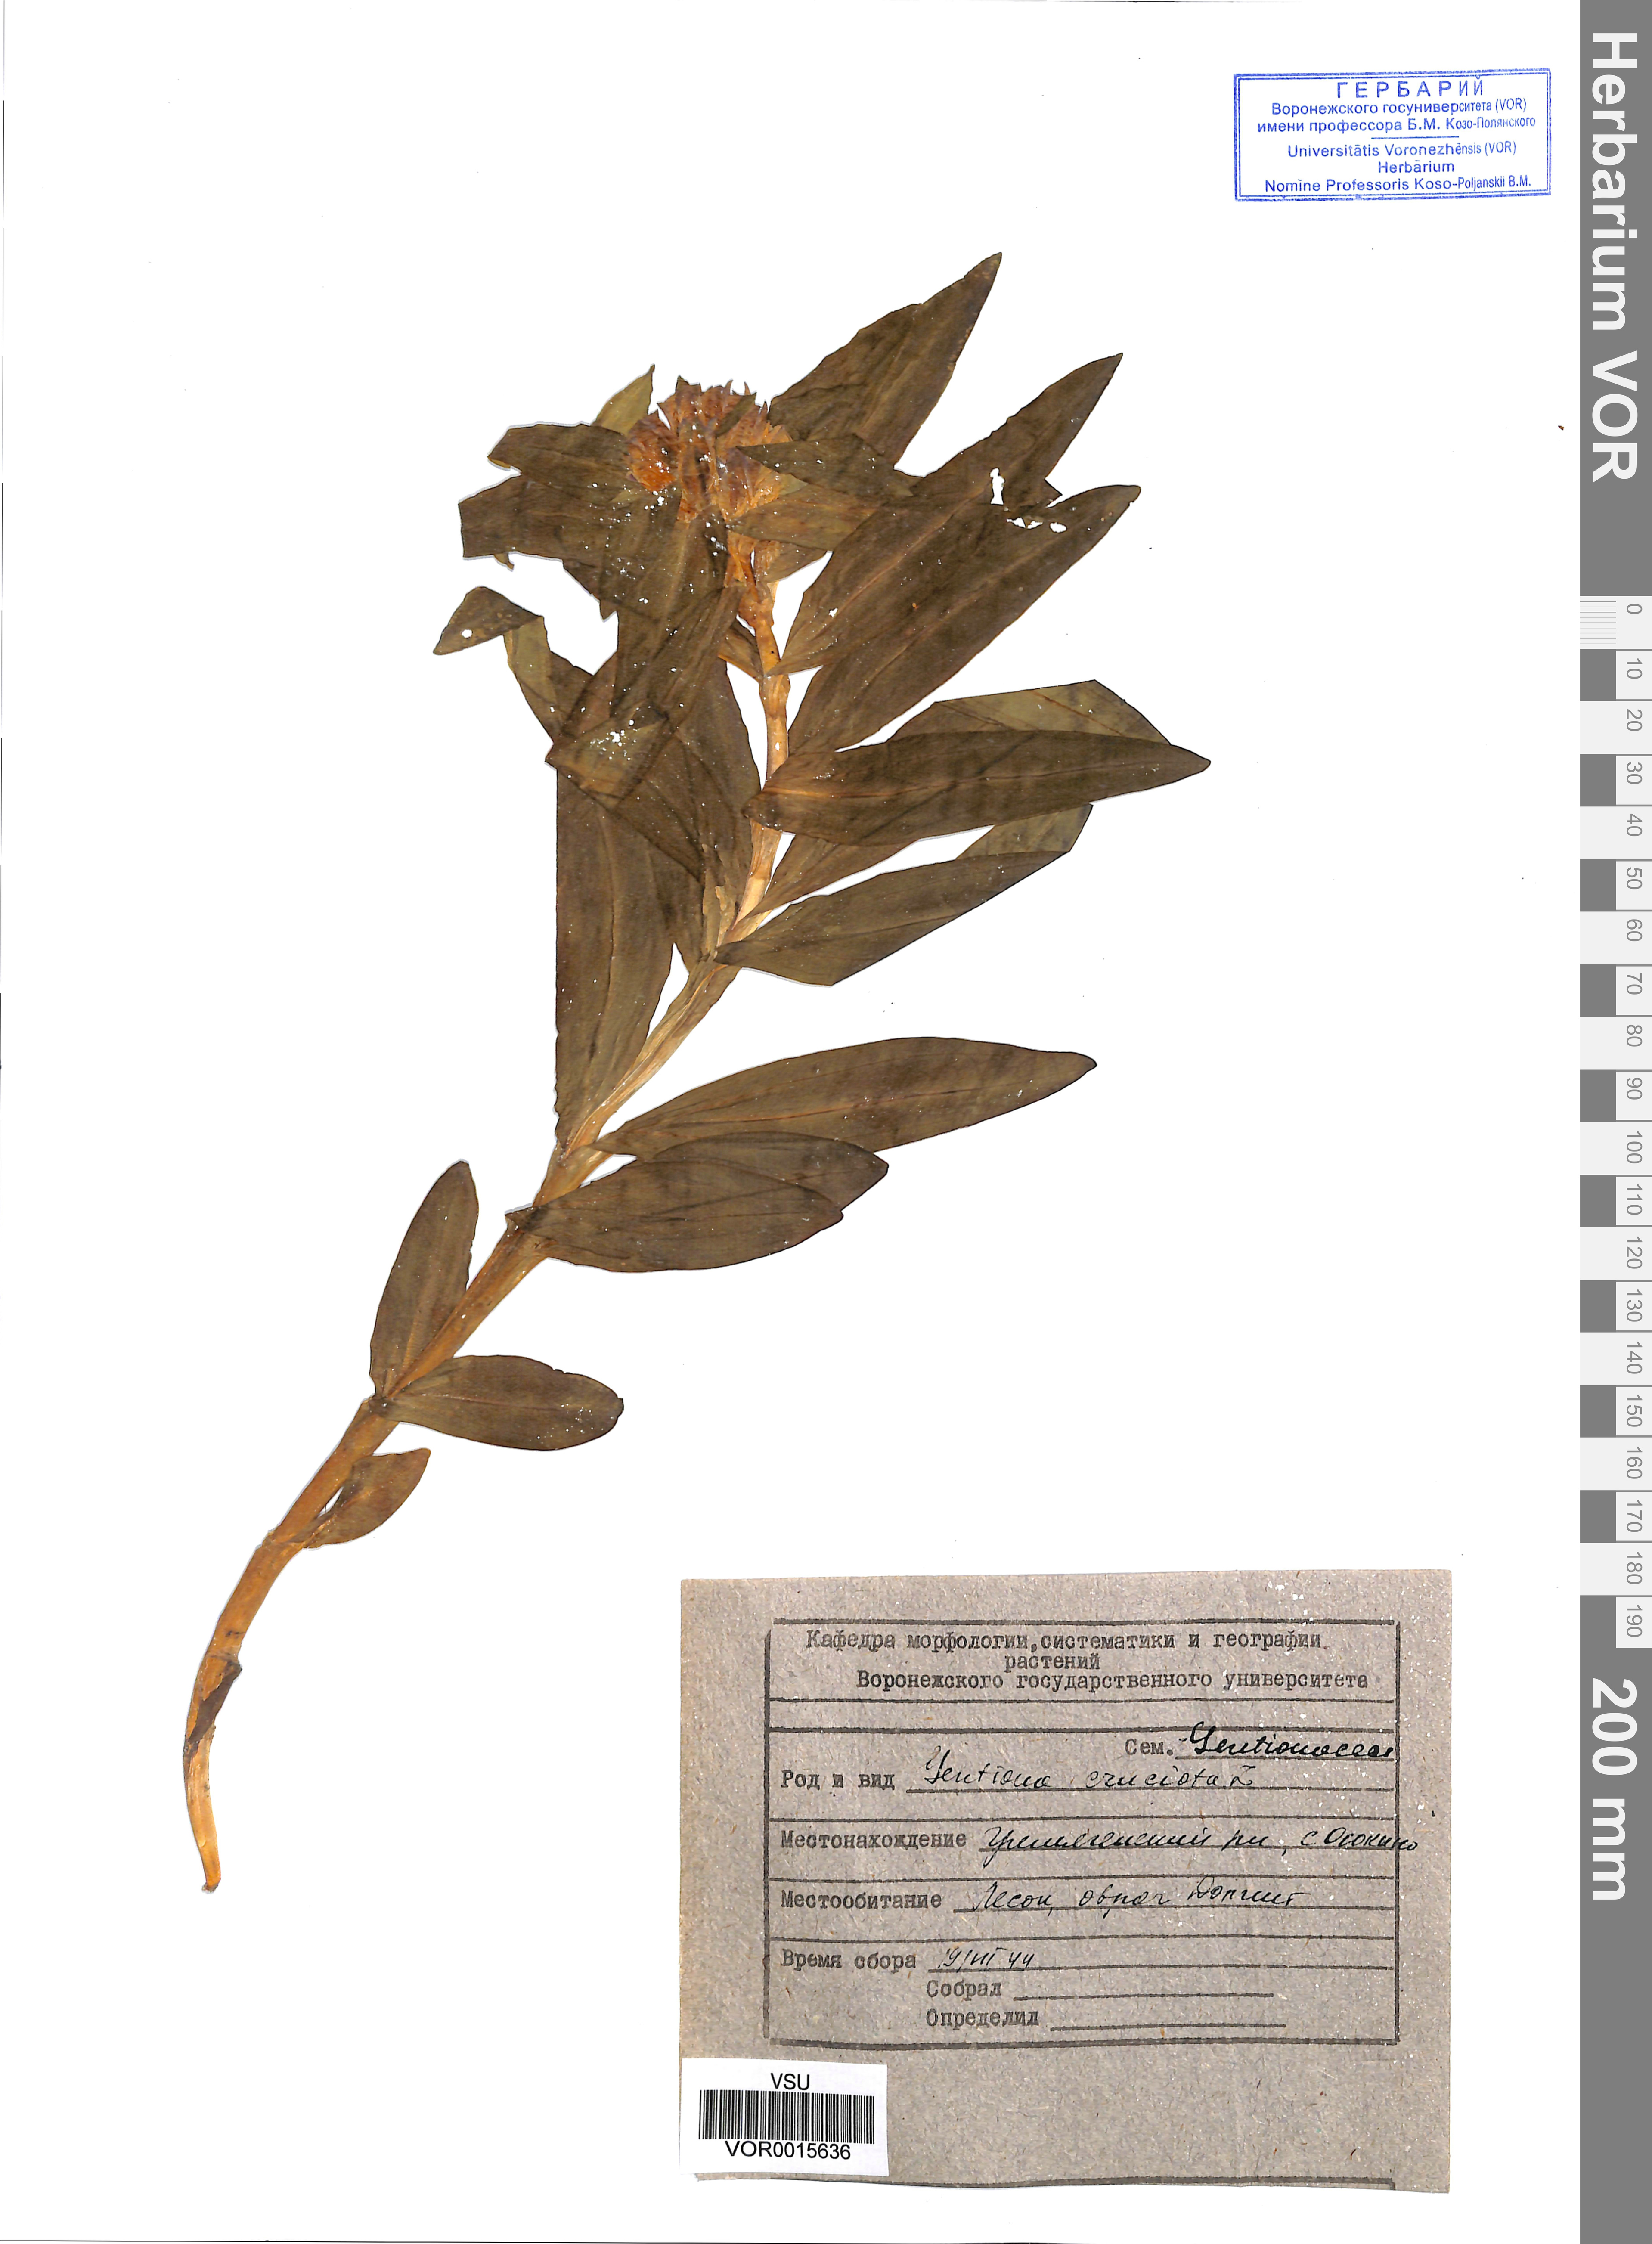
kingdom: Plantae
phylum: Tracheophyta
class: Magnoliopsida
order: Gentianales
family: Gentianaceae
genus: Gentiana
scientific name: Gentiana cruciata
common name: Cross gentian
